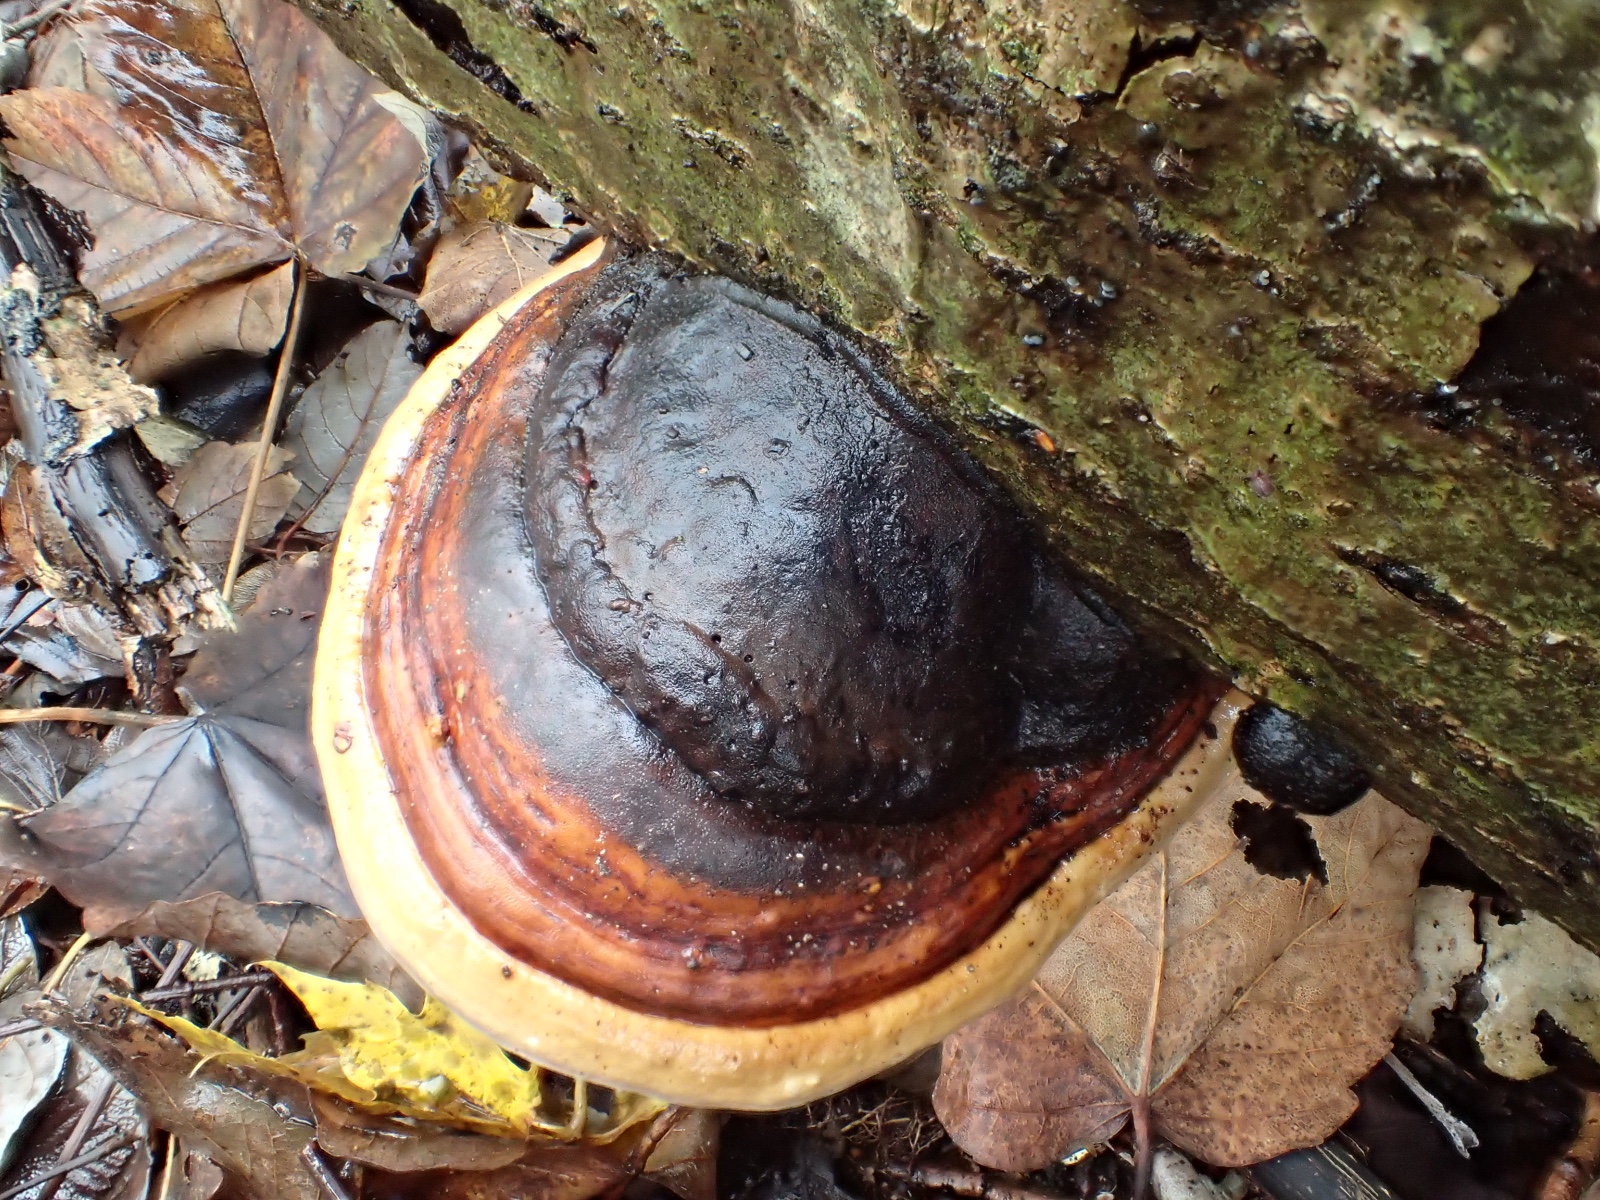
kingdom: Fungi
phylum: Basidiomycota
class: Agaricomycetes
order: Polyporales
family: Fomitopsidaceae
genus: Fomitopsis
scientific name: Fomitopsis pinicola
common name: randbæltet hovporesvamp
